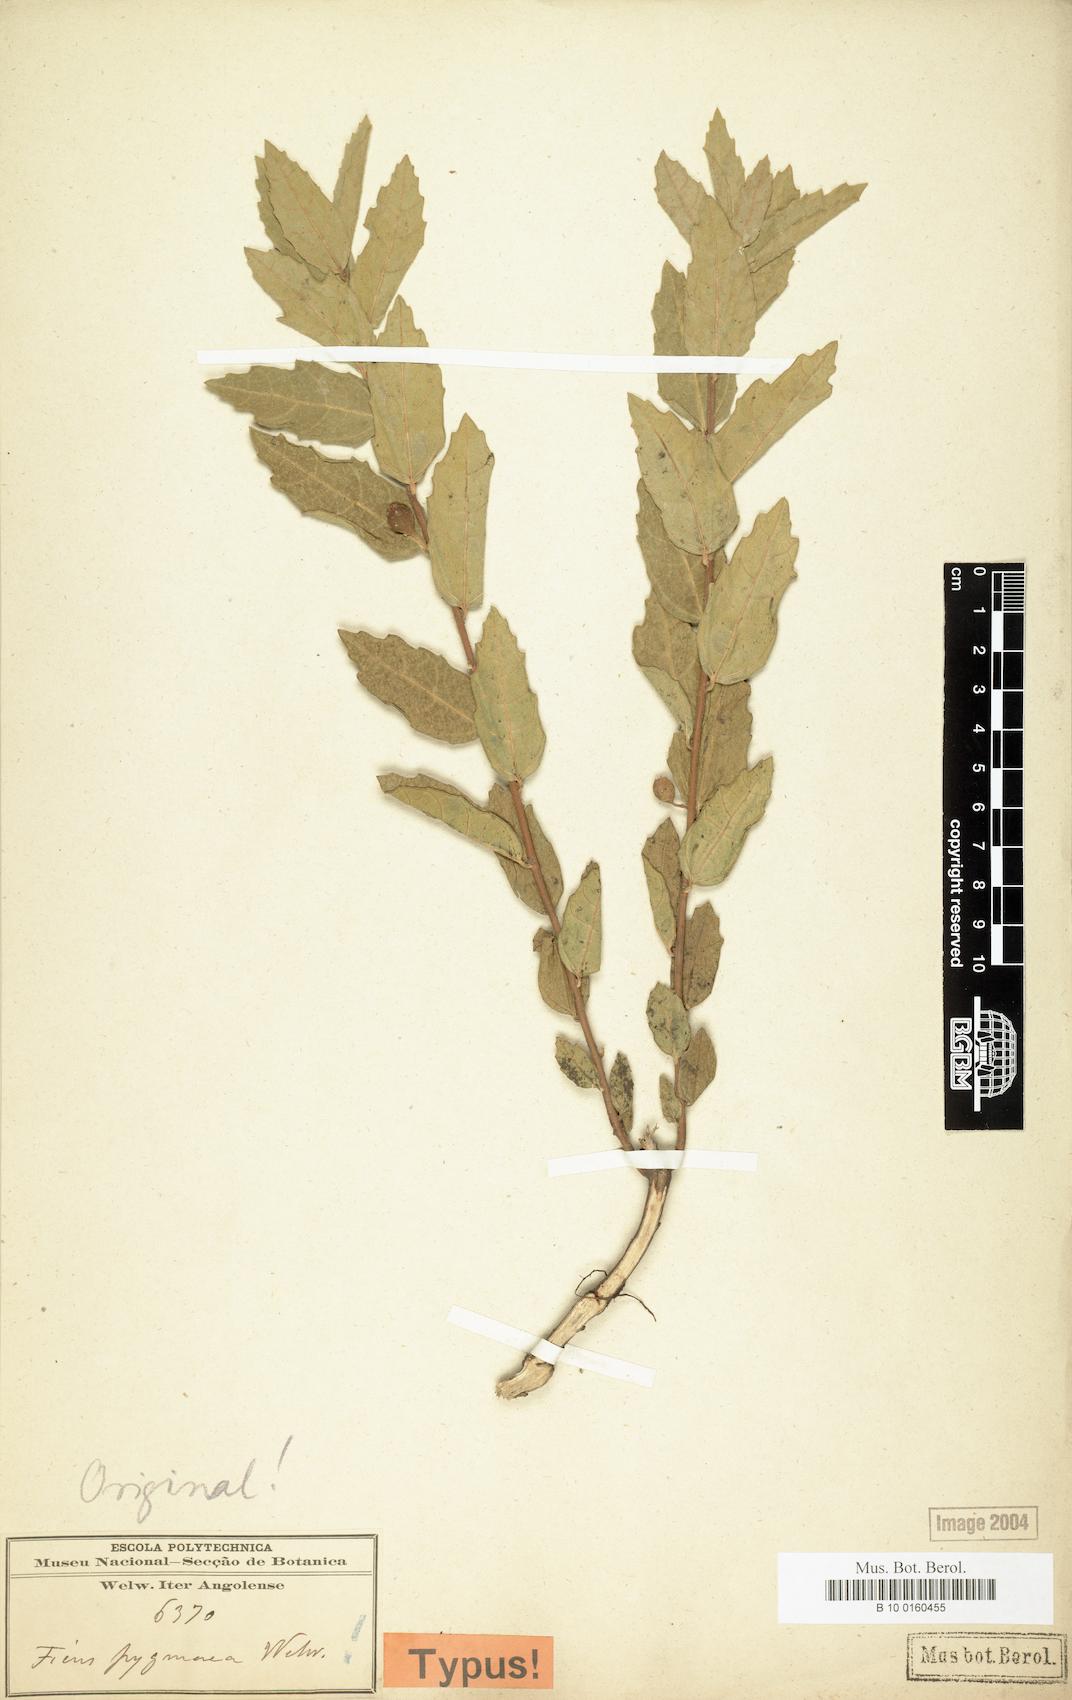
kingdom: Plantae
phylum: Tracheophyta
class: Magnoliopsida
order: Rosales
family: Moraceae
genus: Ficus
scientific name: Ficus pygmaea
